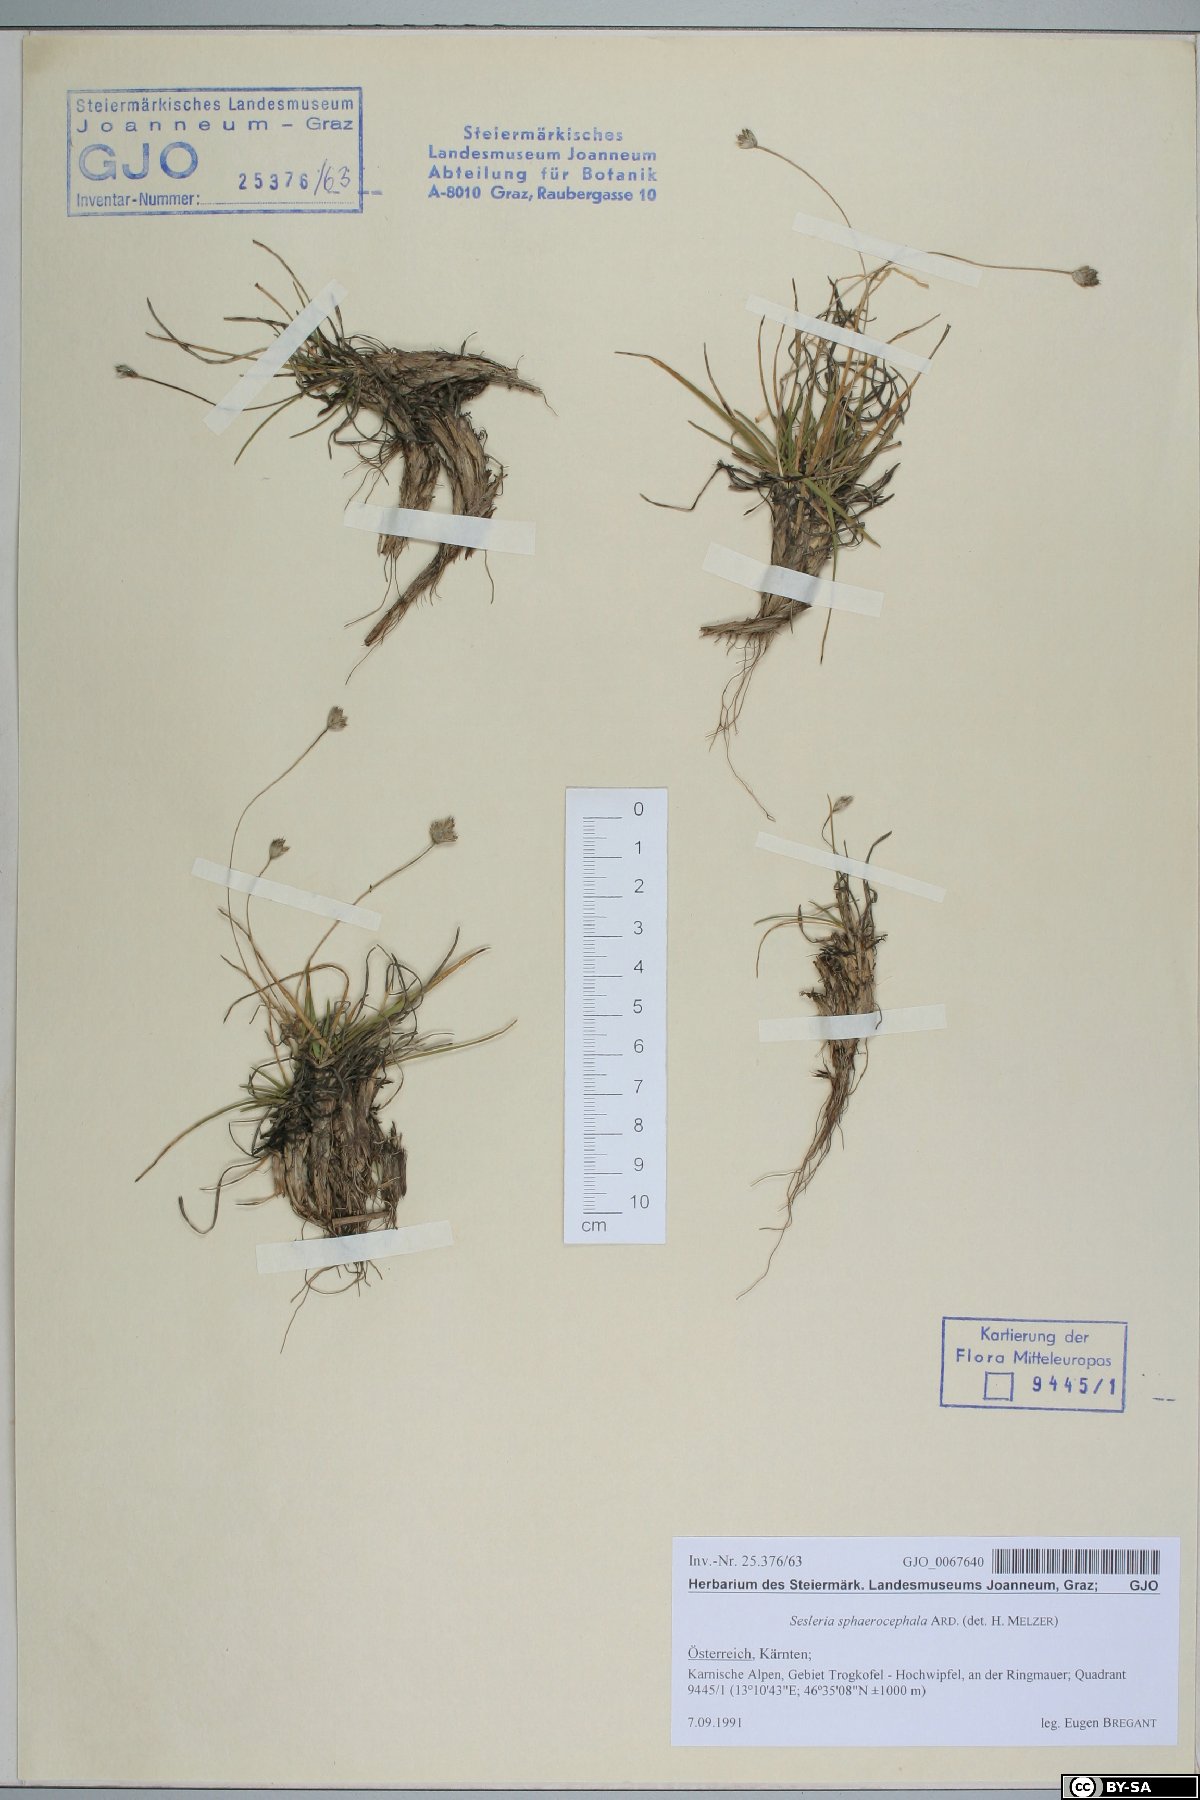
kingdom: Plantae
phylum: Tracheophyta
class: Liliopsida
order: Poales
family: Poaceae
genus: Sesleriella
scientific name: Sesleriella sphaerocephala
